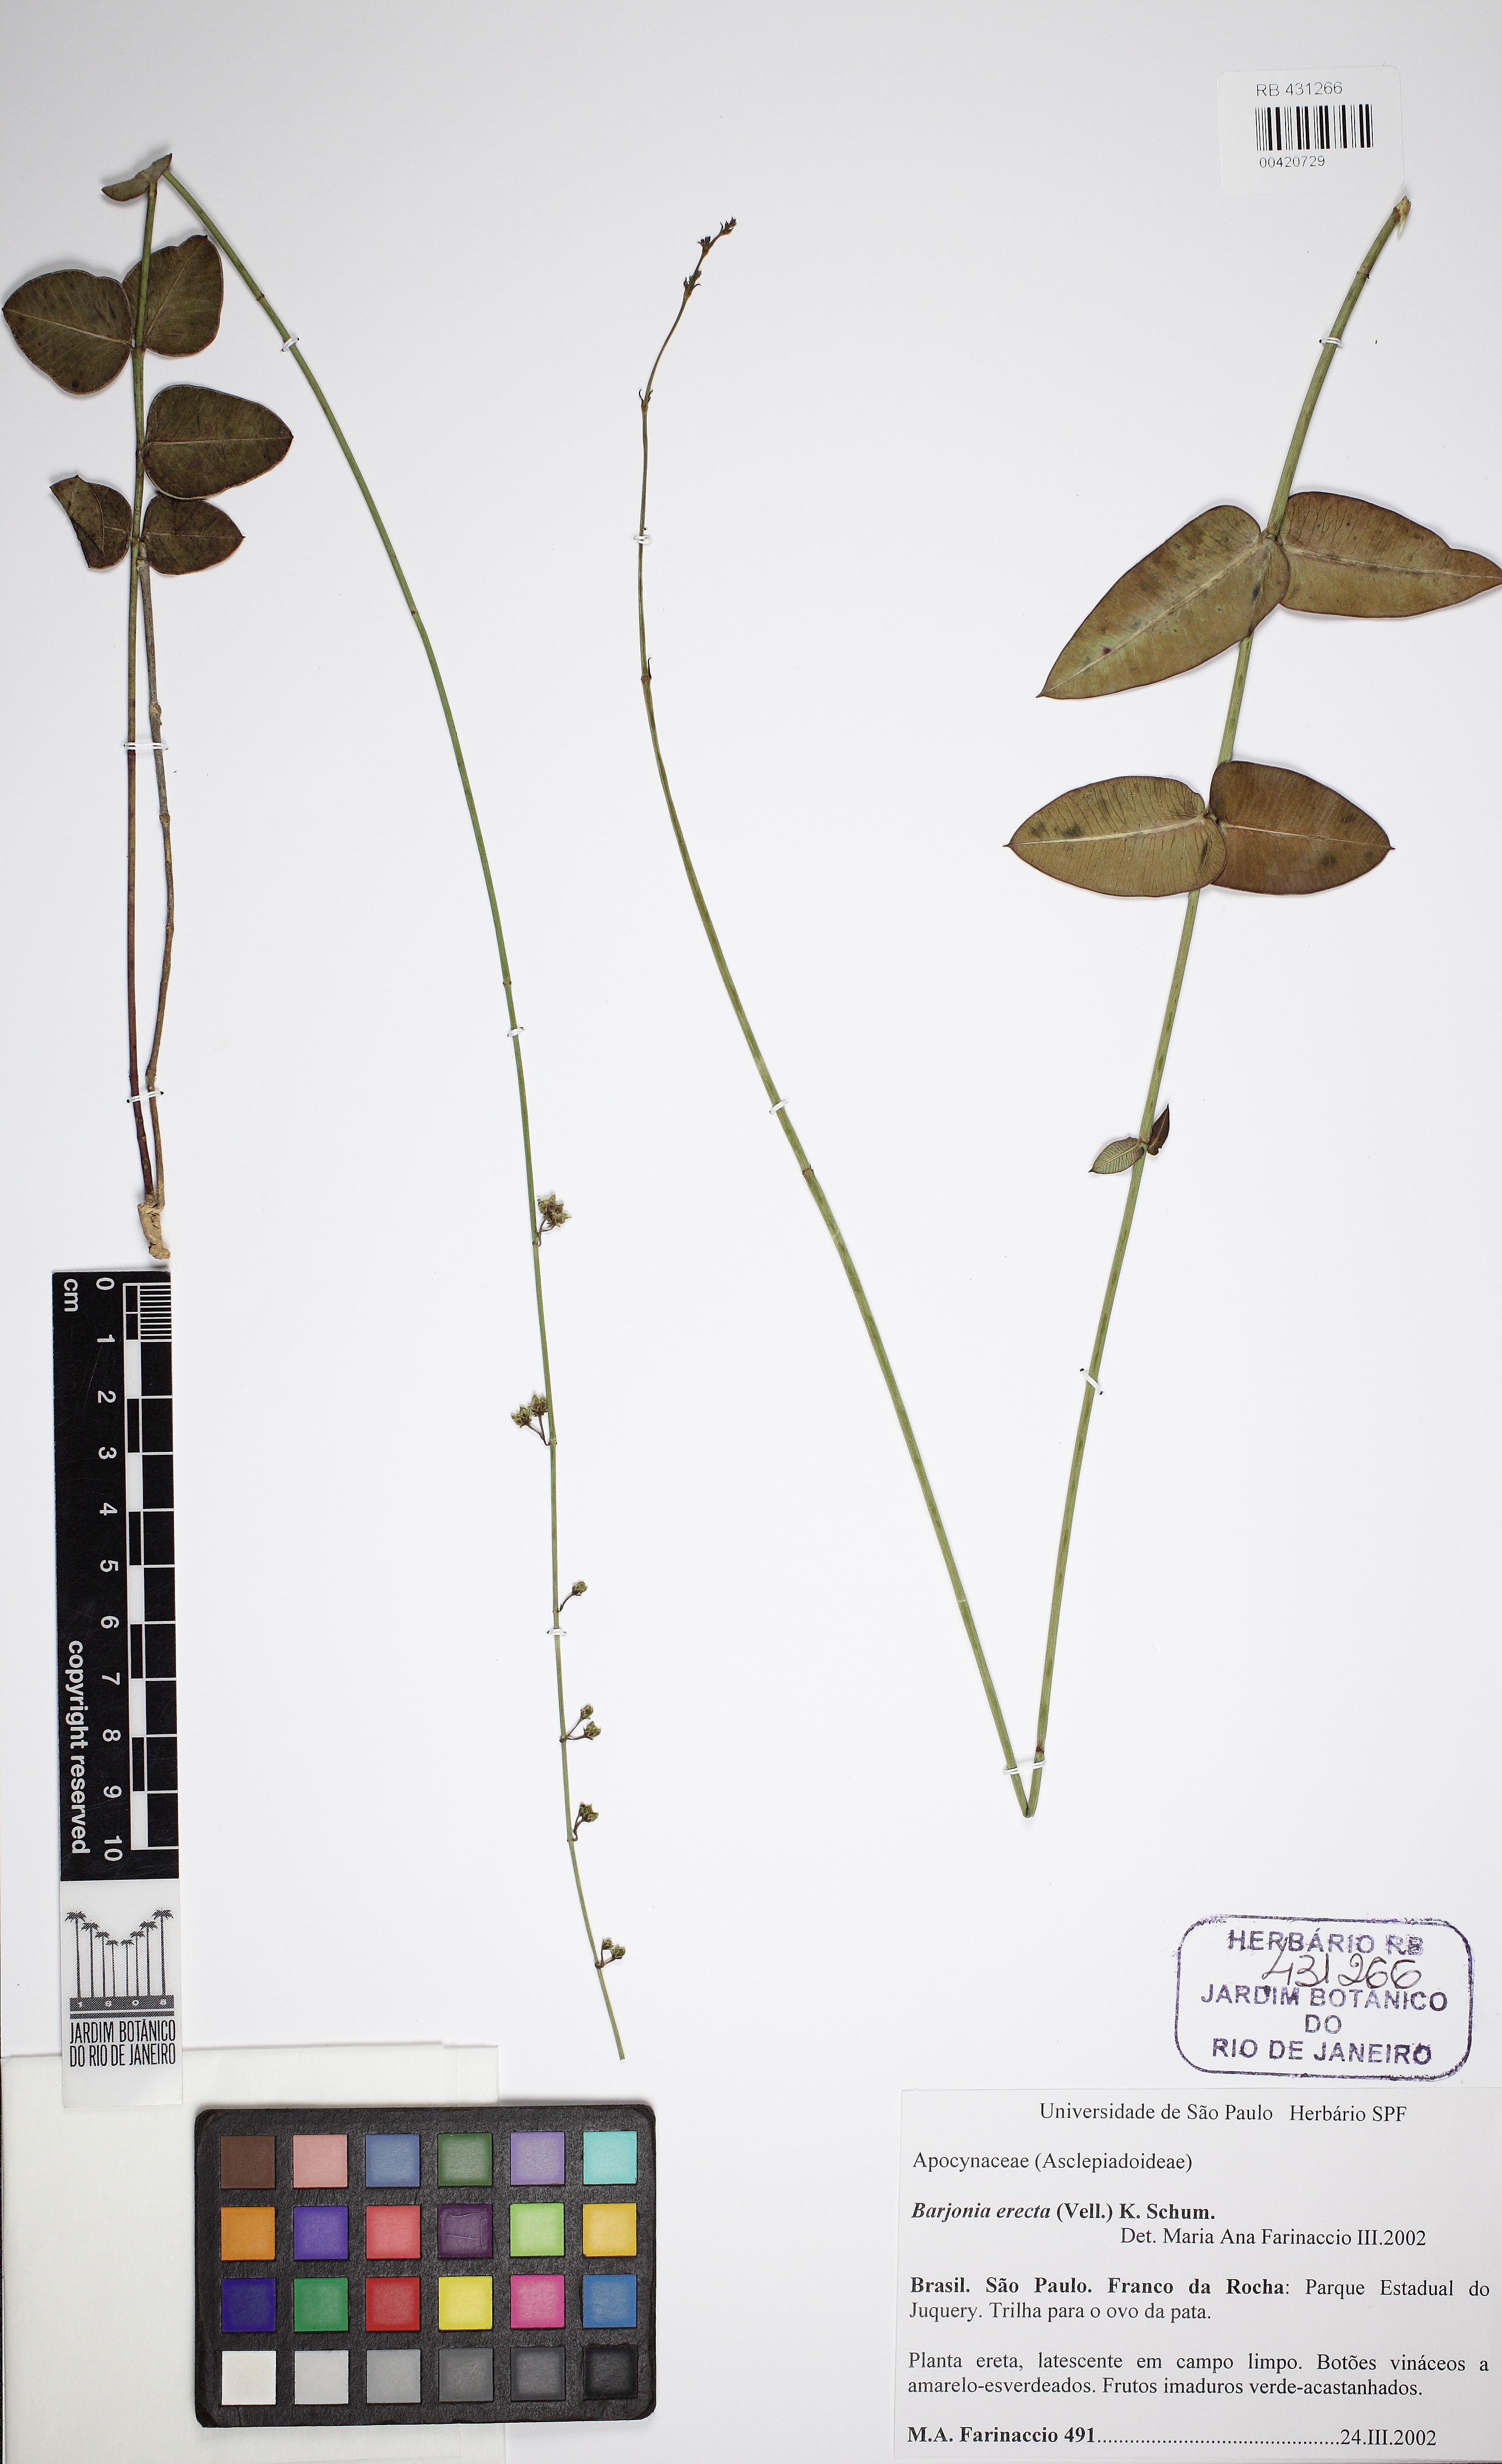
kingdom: Plantae
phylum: Tracheophyta
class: Magnoliopsida
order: Gentianales
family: Apocynaceae
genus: Barjonia
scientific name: Barjonia erecta
